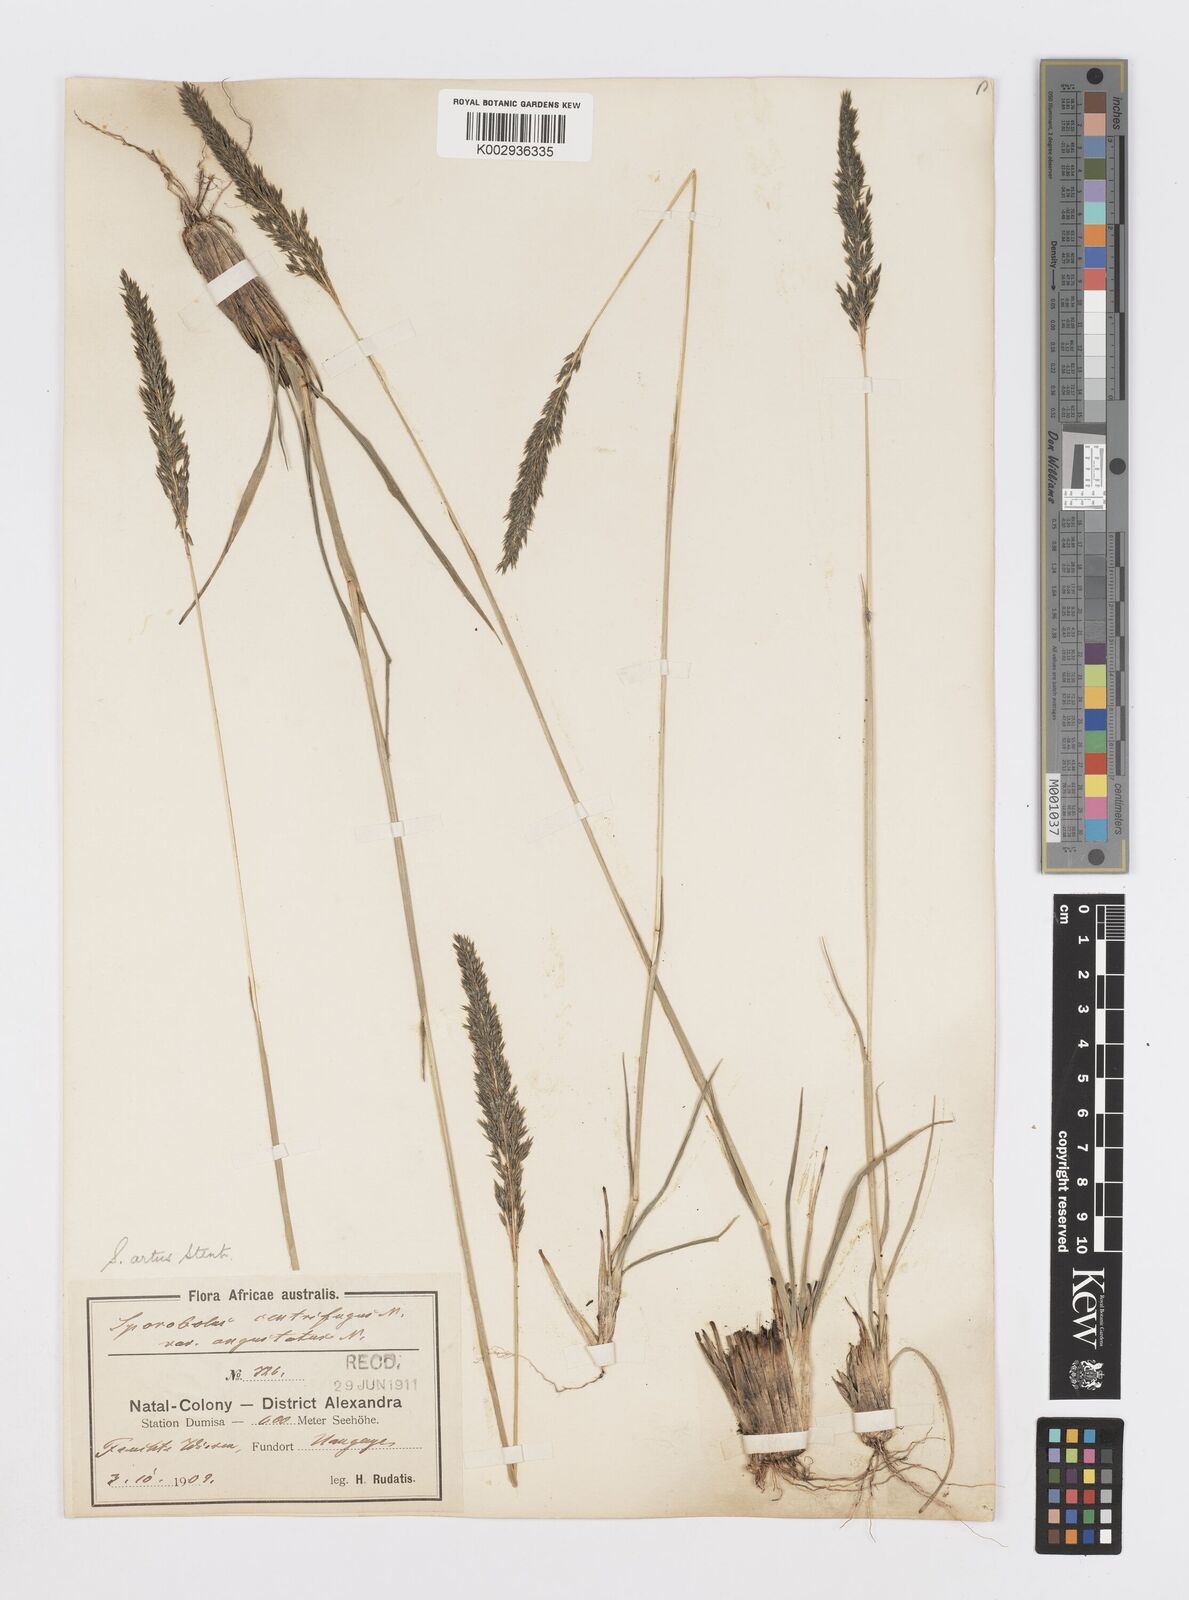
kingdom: Plantae
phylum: Tracheophyta
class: Liliopsida
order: Poales
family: Poaceae
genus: Sporobolus
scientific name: Sporobolus centrifugus
